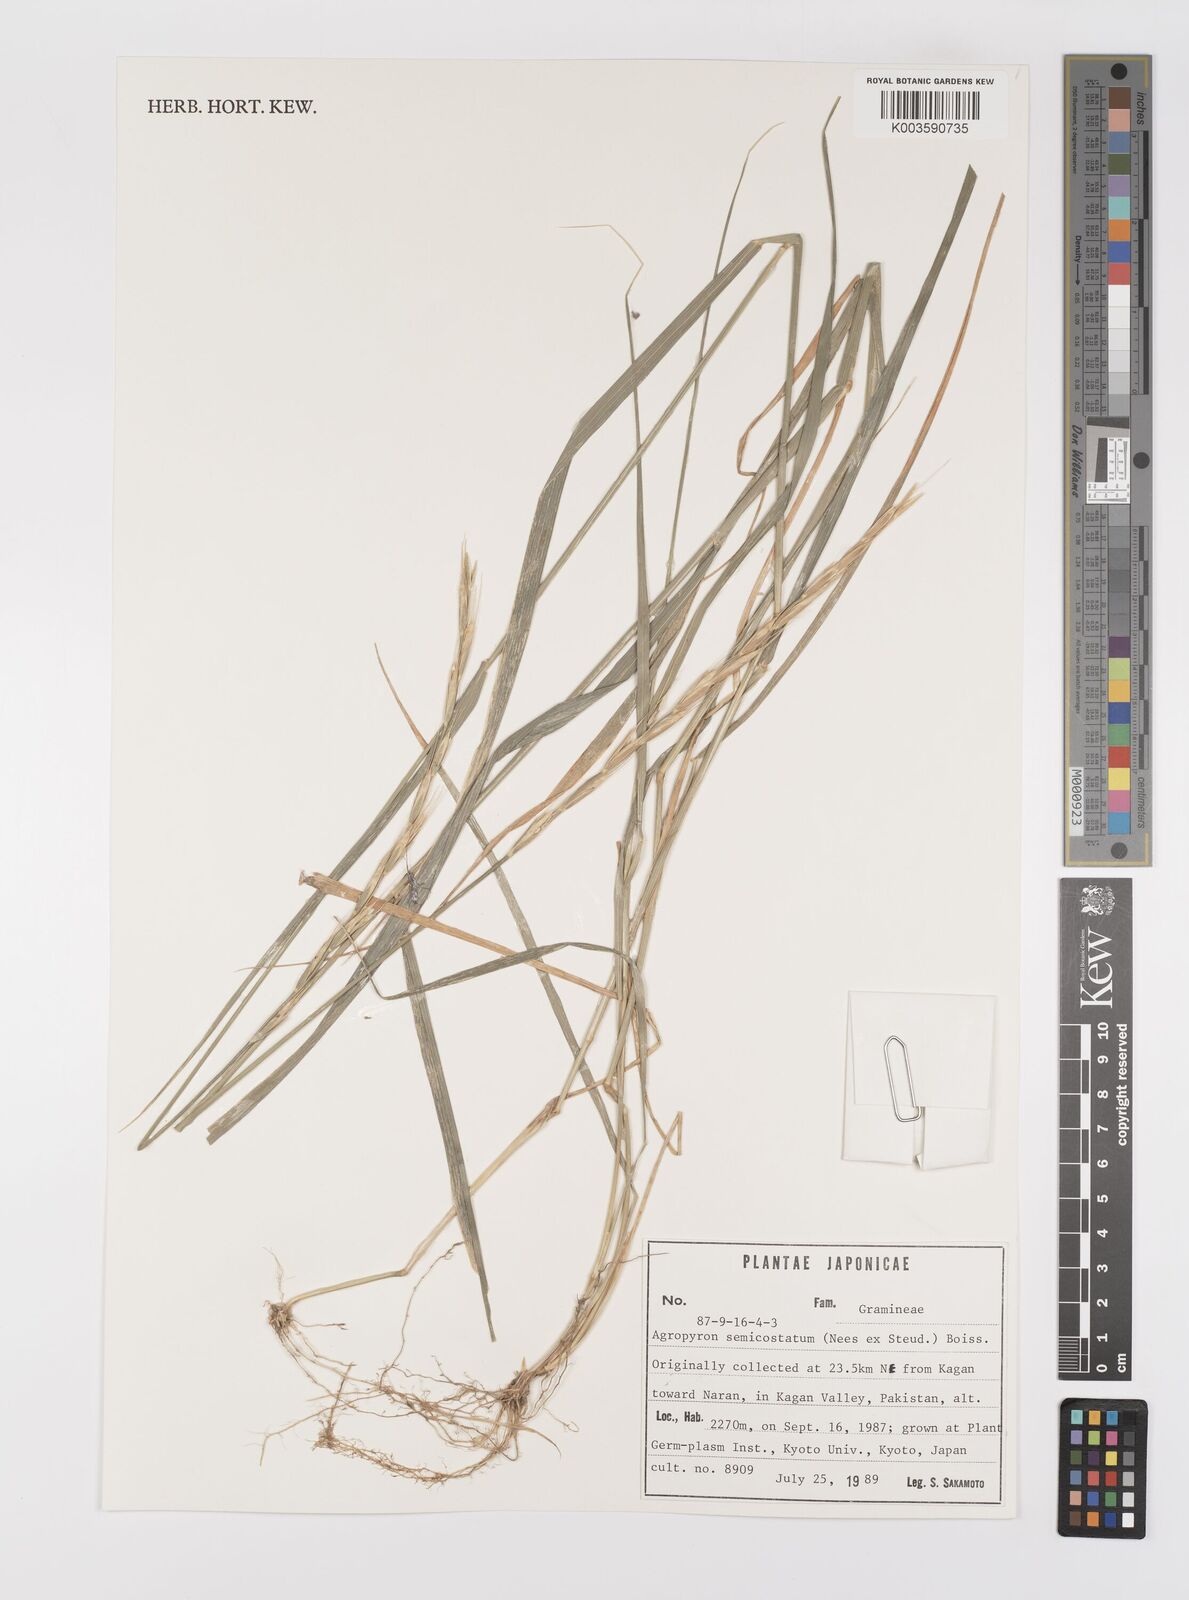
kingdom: Plantae
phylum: Tracheophyta
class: Liliopsida
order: Poales
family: Poaceae
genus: Elymus
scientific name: Elymus semicostatus
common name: Drooping wildrye
